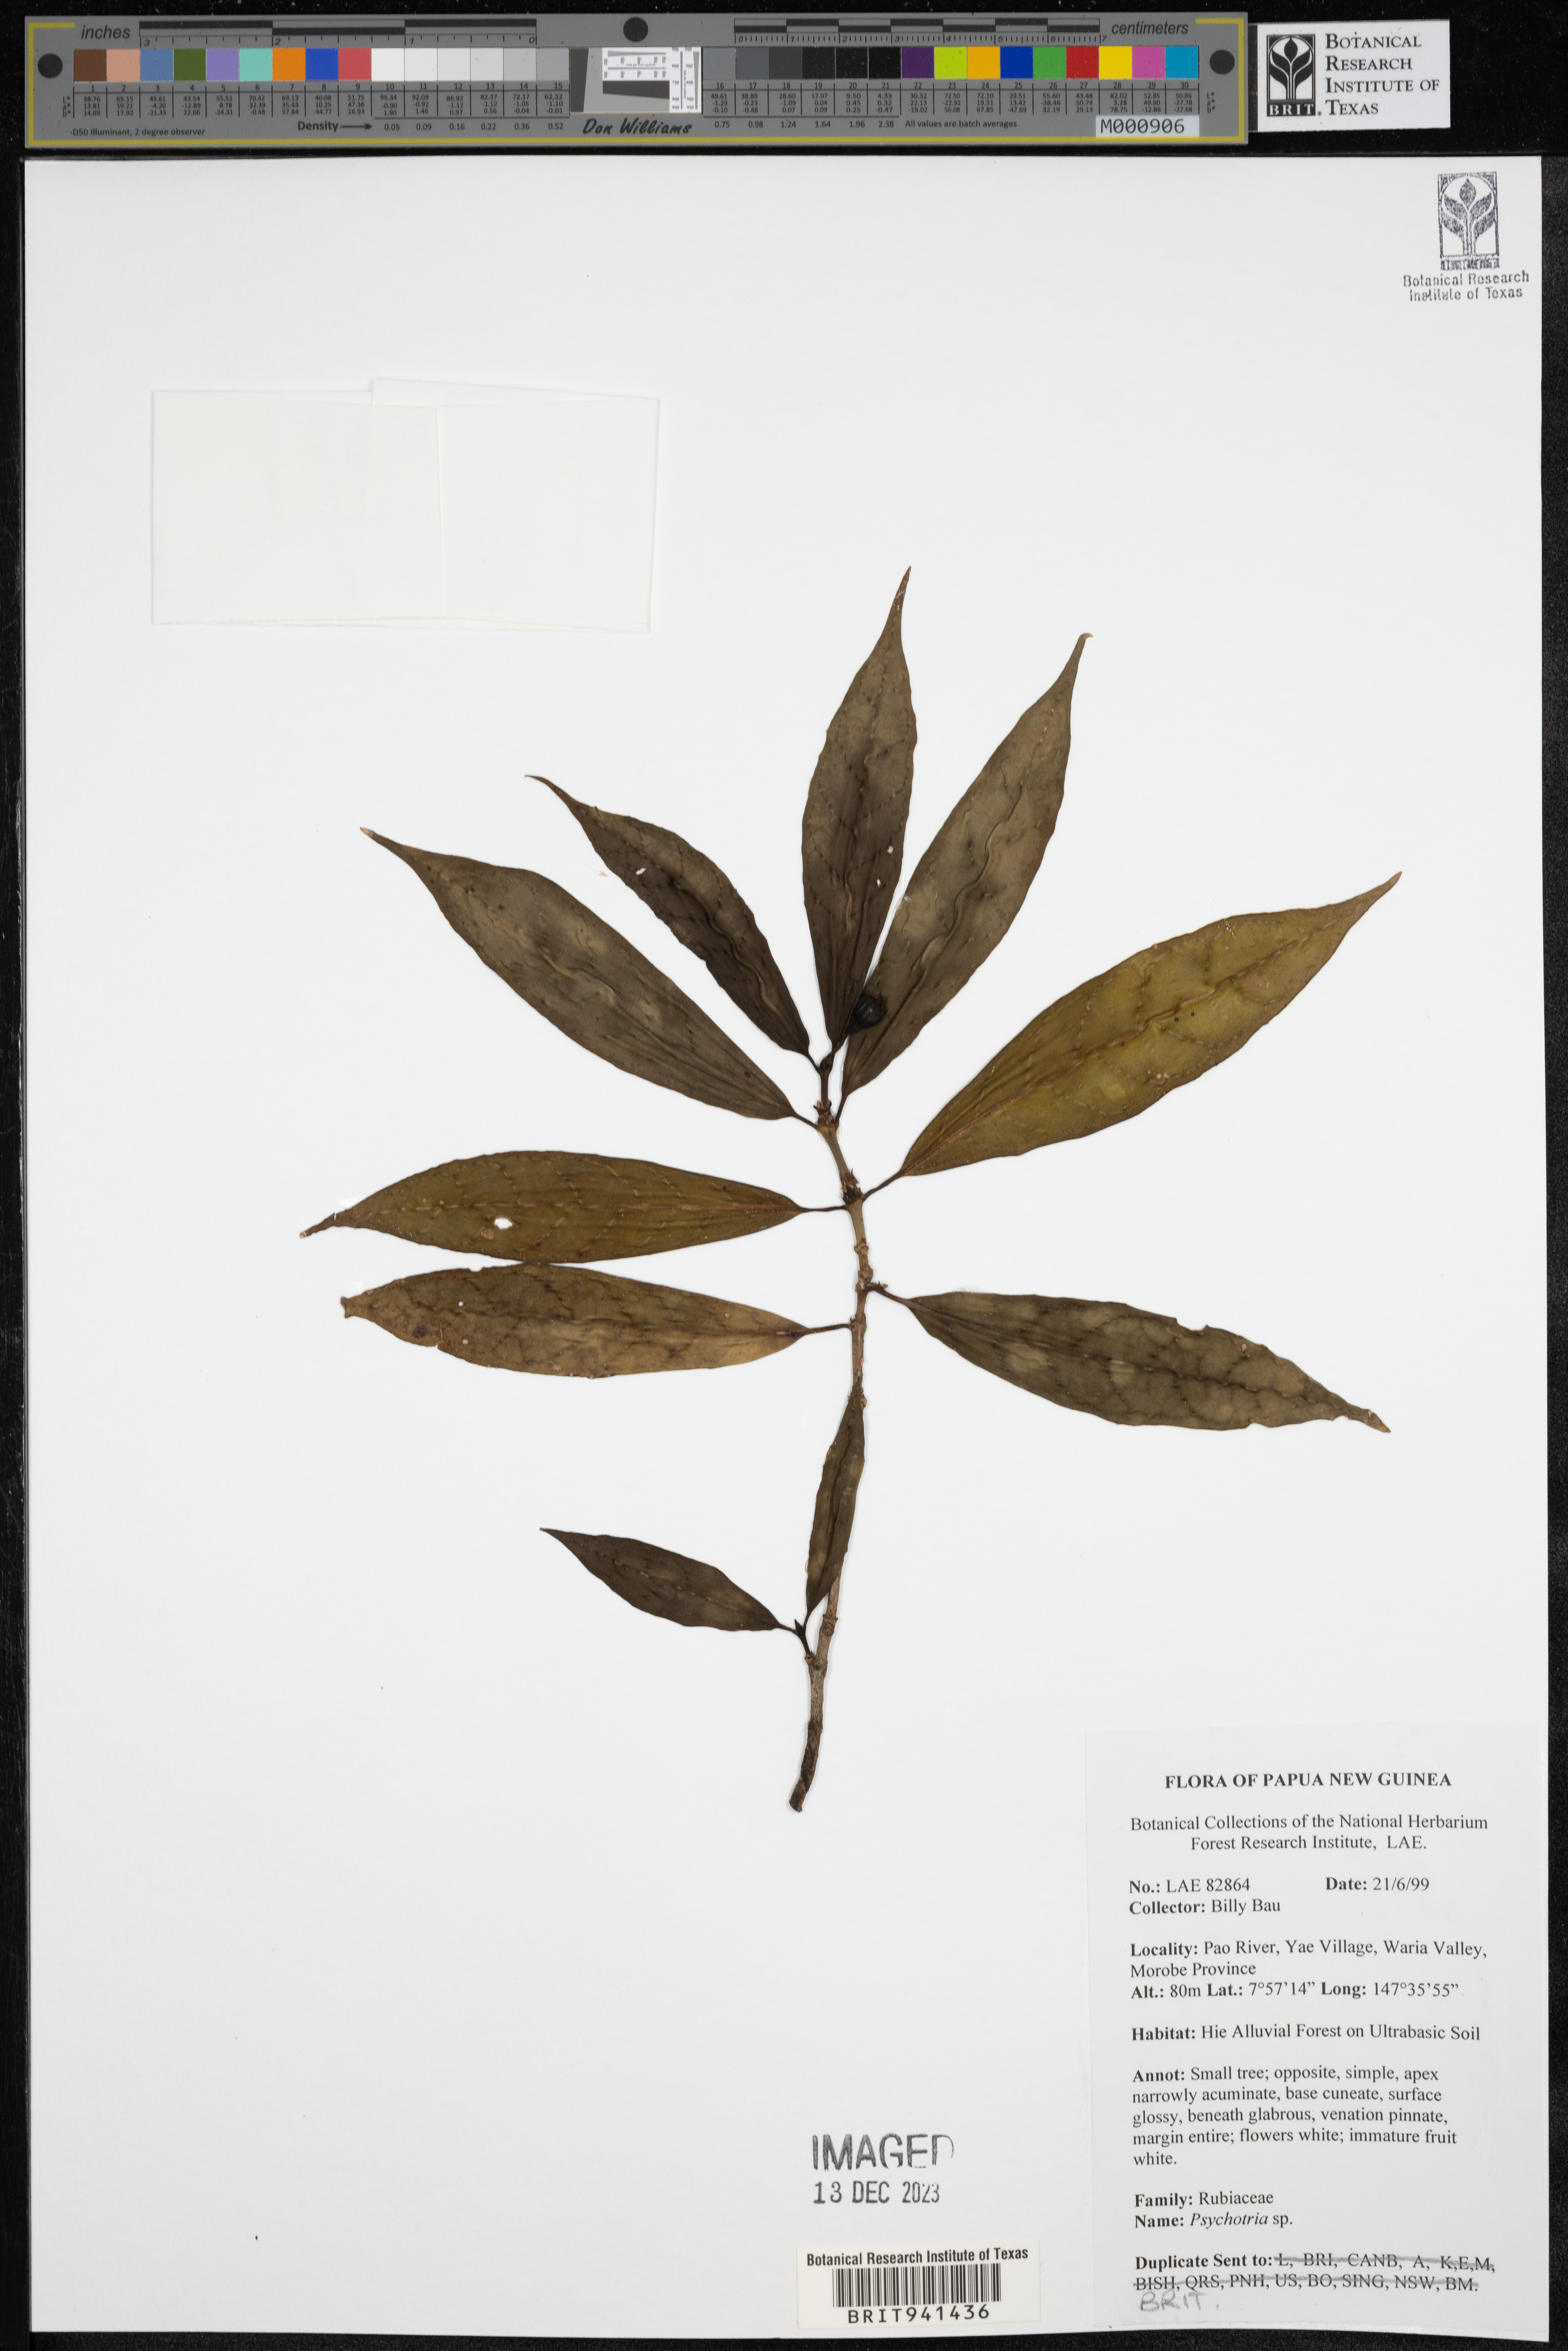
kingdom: Plantae
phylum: Tracheophyta
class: Magnoliopsida
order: Gentianales
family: Rubiaceae
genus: Psychotria
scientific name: Psychotria
